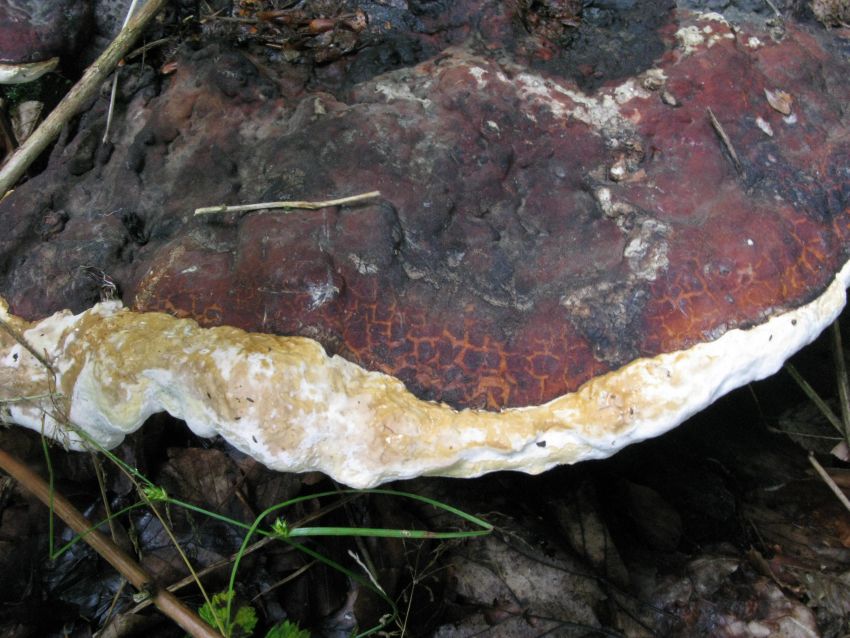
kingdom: Fungi
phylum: Basidiomycota
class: Agaricomycetes
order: Polyporales
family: Polyporaceae
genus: Ganoderma
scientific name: Ganoderma pfeifferi
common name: kobberrød lakporesvamp
